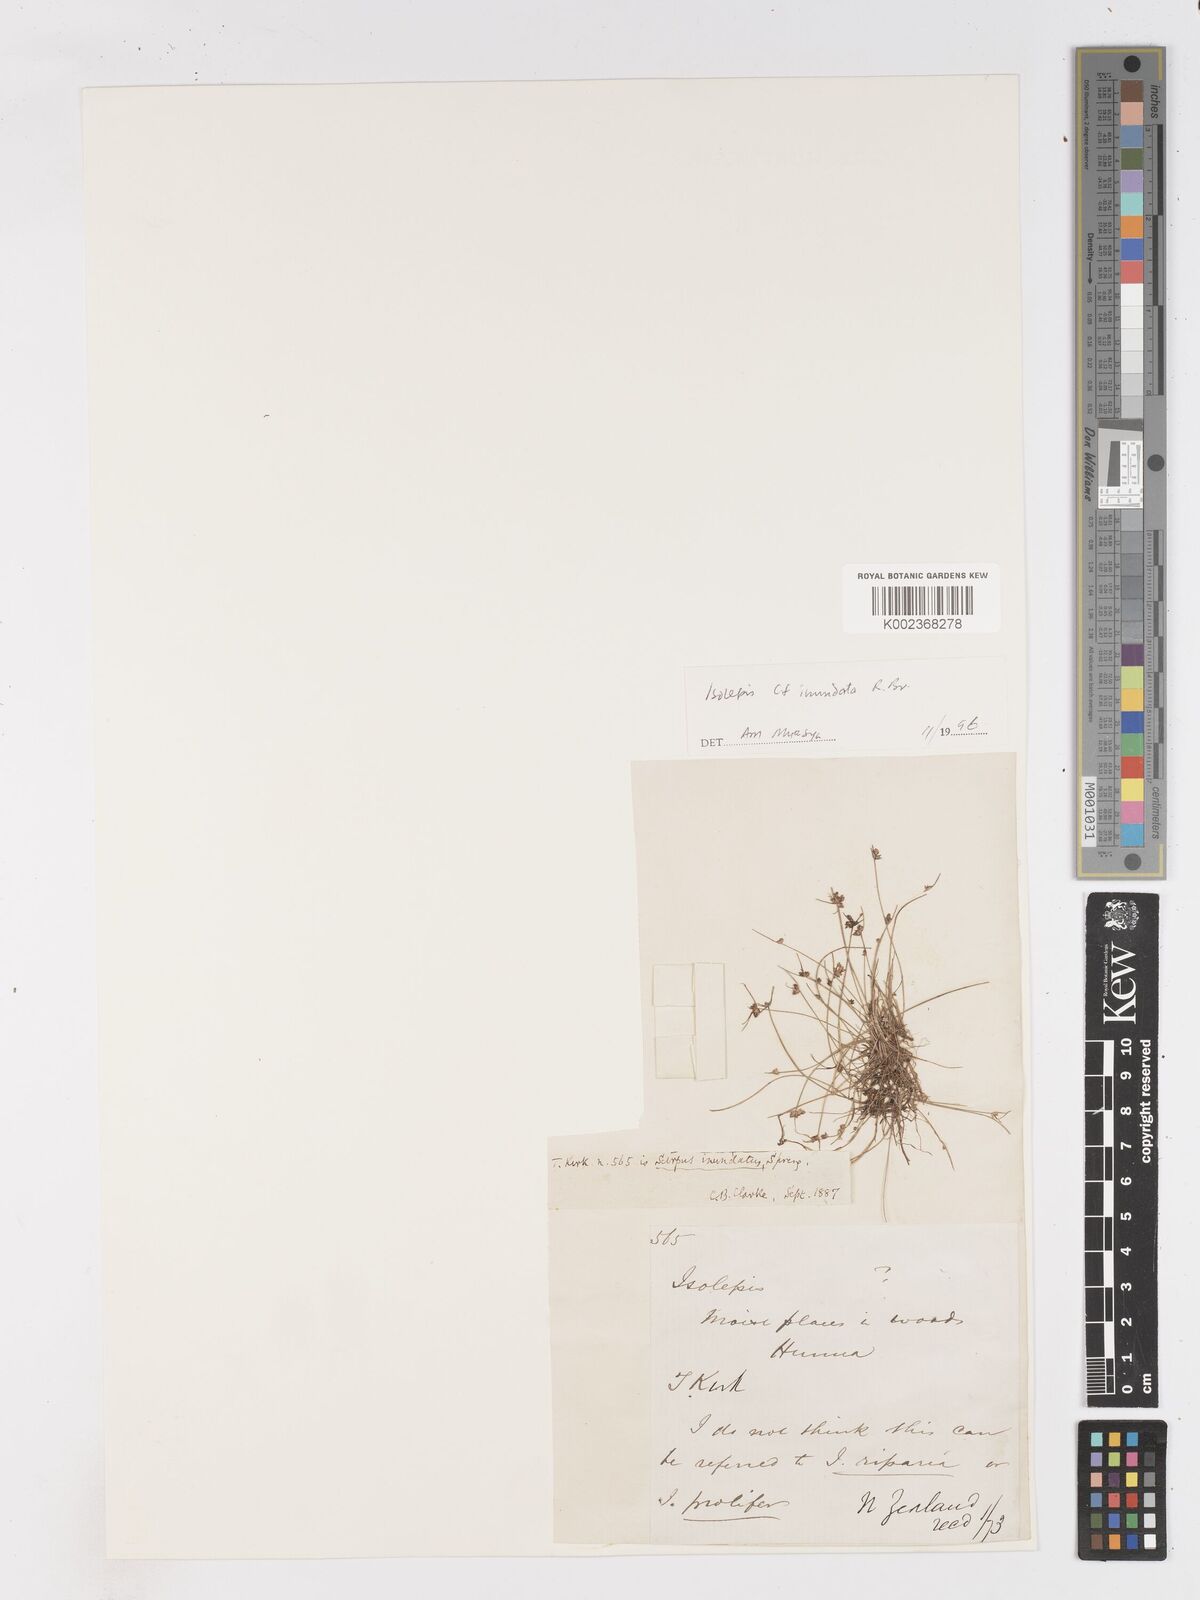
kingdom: Plantae
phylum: Tracheophyta
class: Liliopsida
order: Poales
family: Cyperaceae
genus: Isolepis
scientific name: Isolepis inundata
